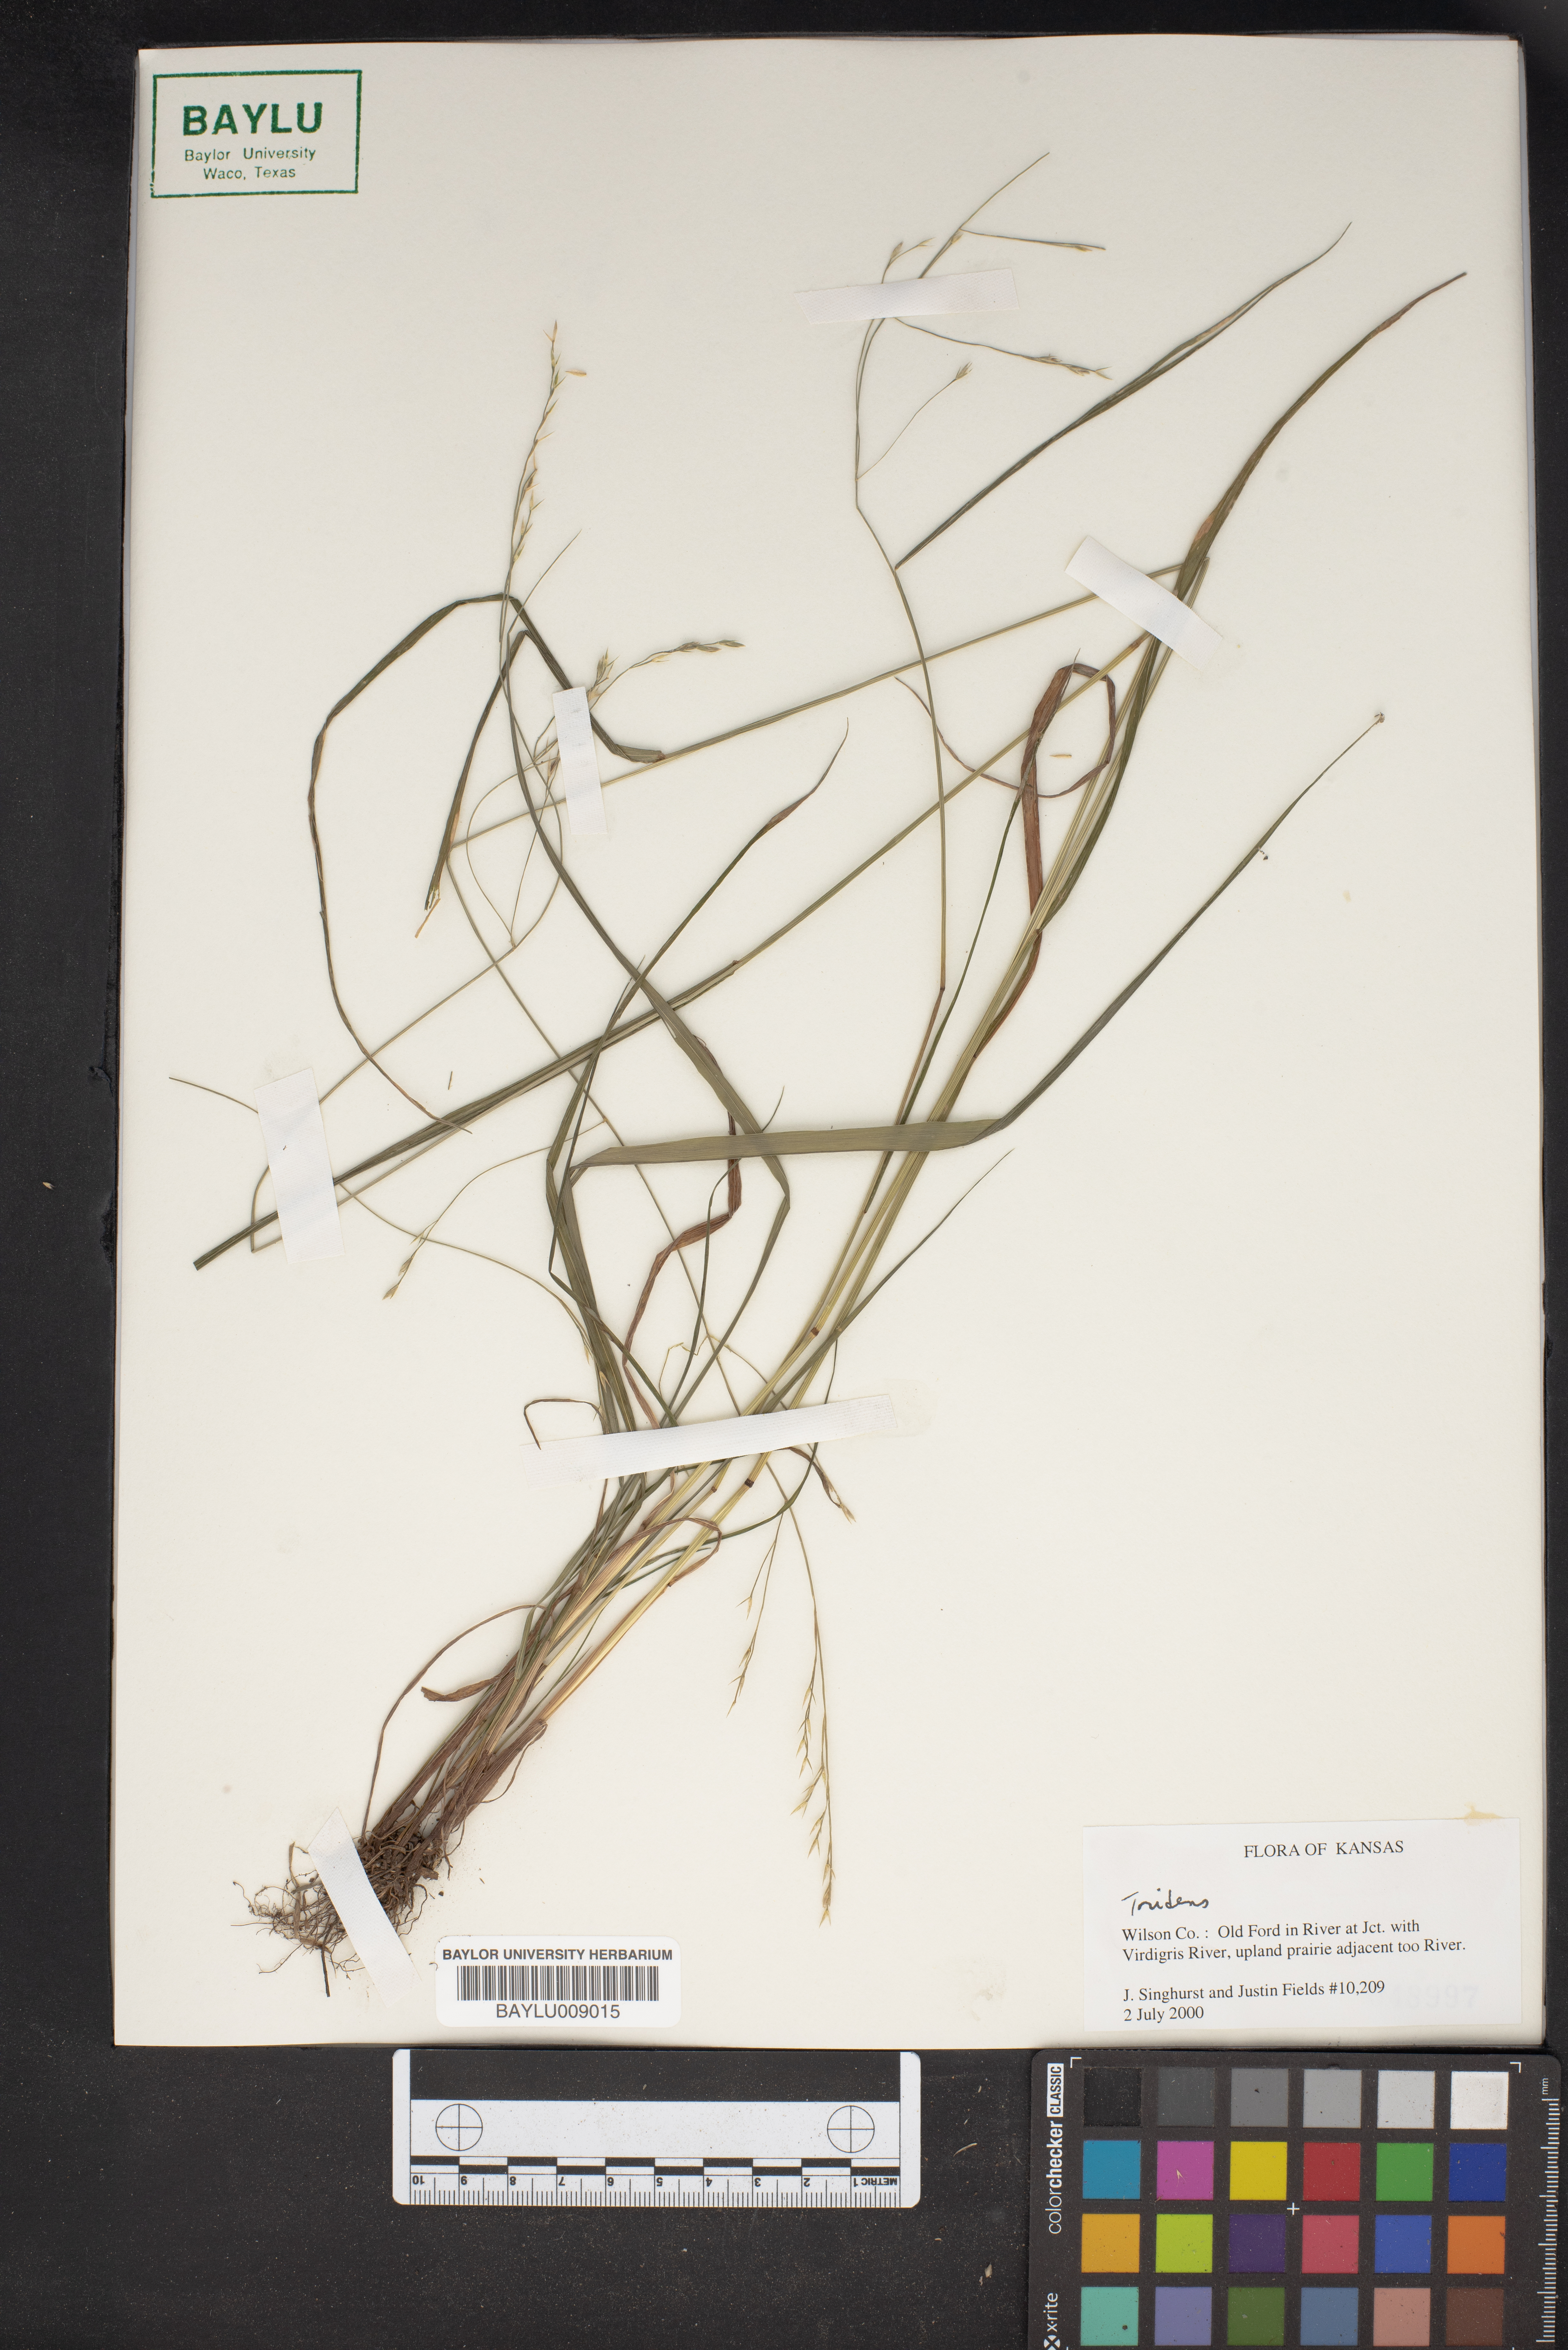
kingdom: Plantae
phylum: Tracheophyta
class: Liliopsida
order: Poales
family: Poaceae
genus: Tridens
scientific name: Tridens
